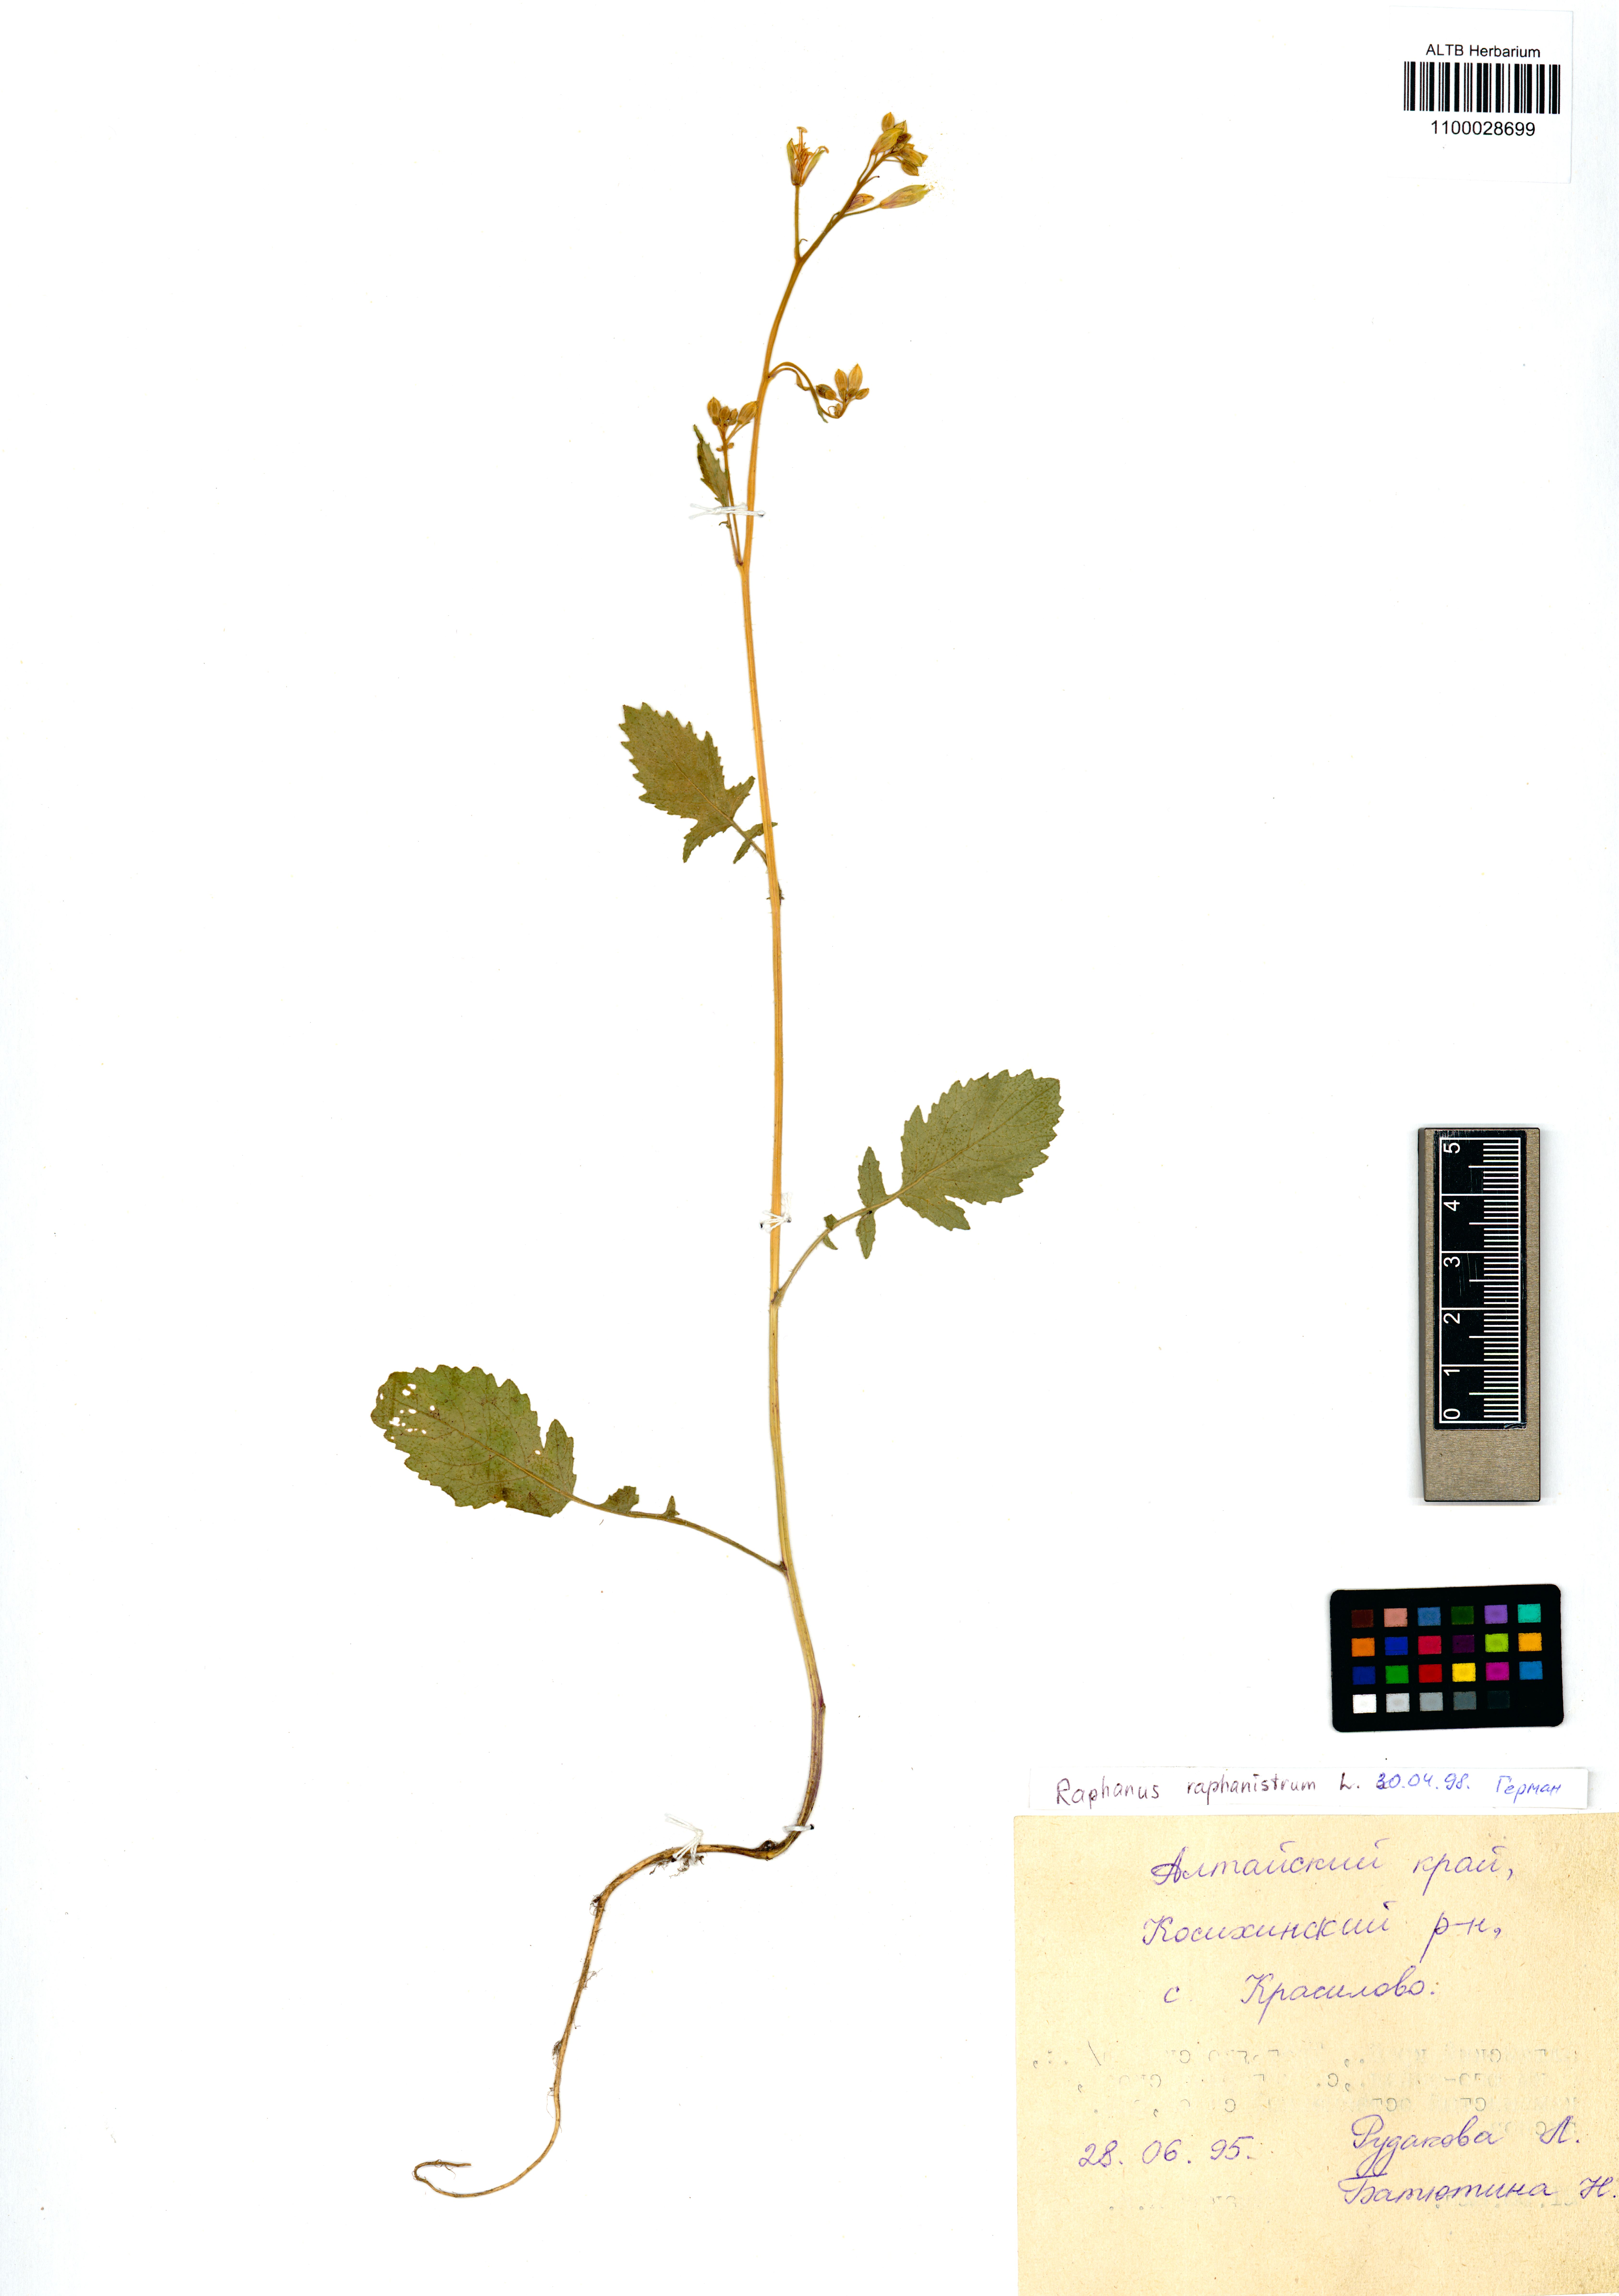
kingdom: Plantae
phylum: Tracheophyta
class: Magnoliopsida
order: Brassicales
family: Brassicaceae
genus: Raphanus
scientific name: Raphanus raphanistrum
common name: Wild radish
